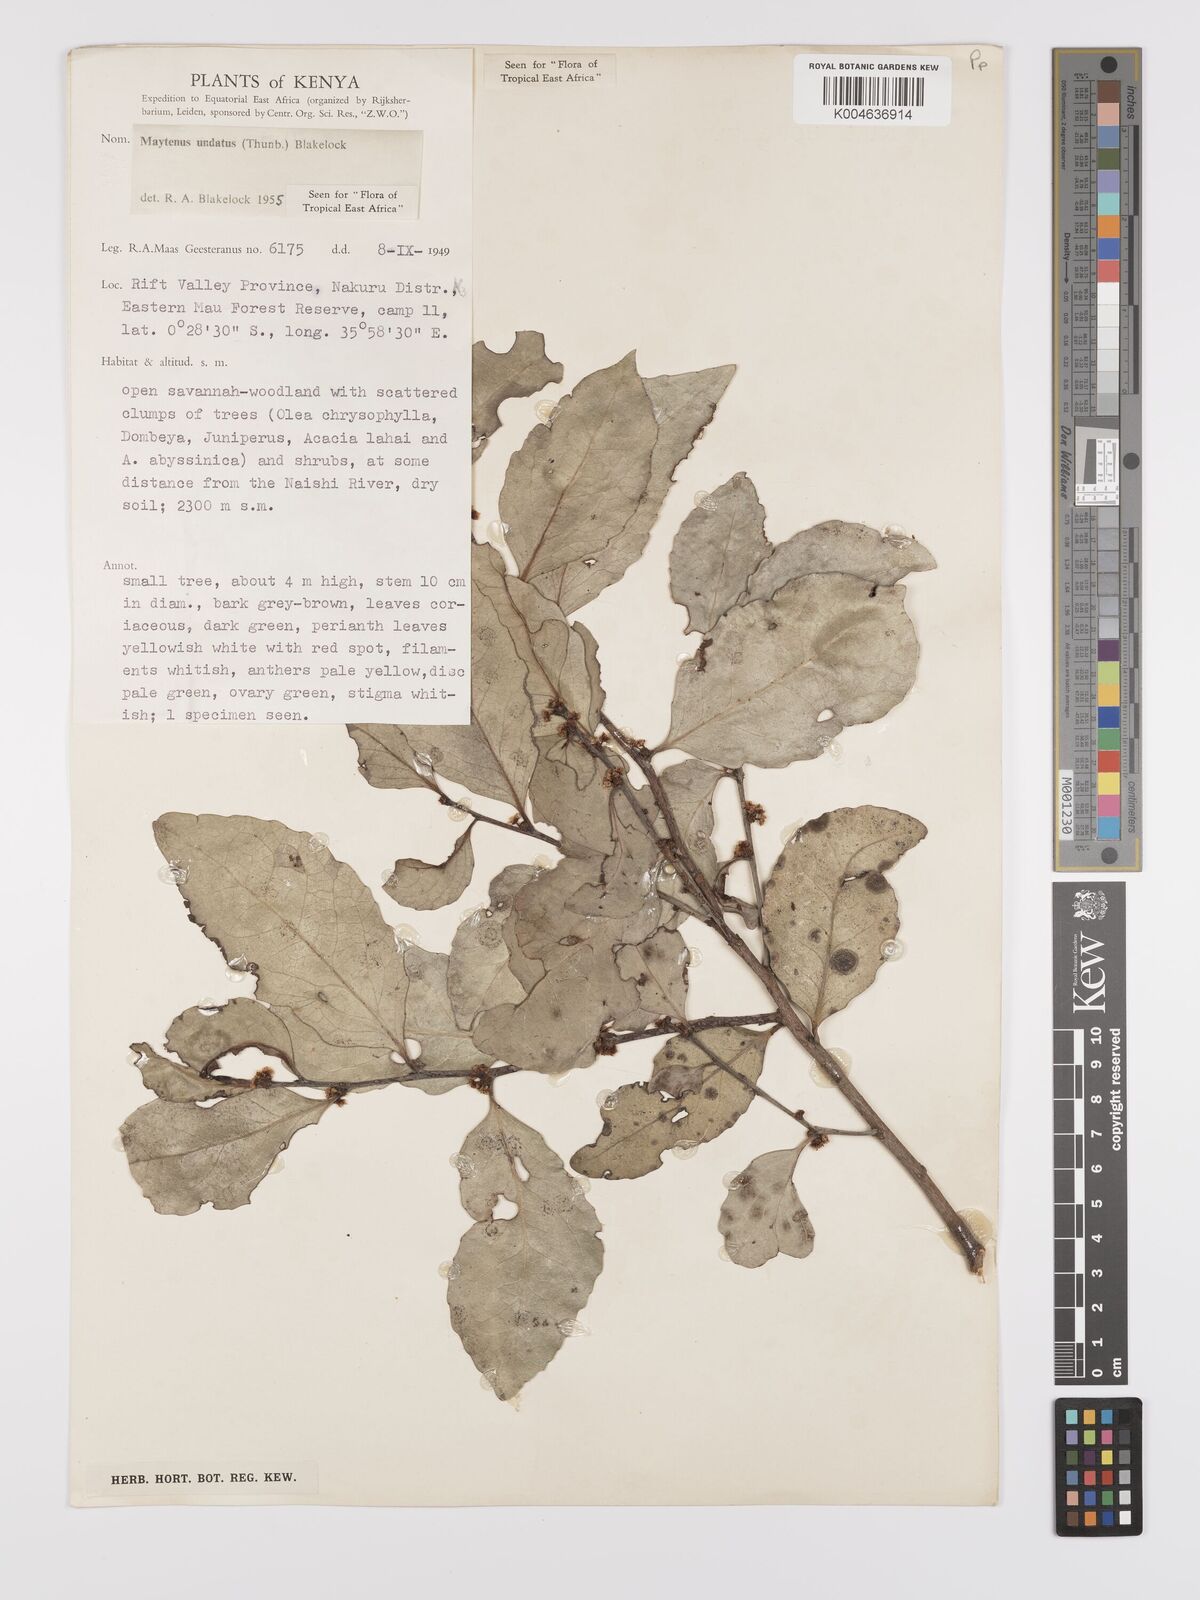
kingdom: Plantae
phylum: Tracheophyta
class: Magnoliopsida
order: Celastrales
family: Celastraceae
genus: Gymnosporia
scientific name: Gymnosporia undata
